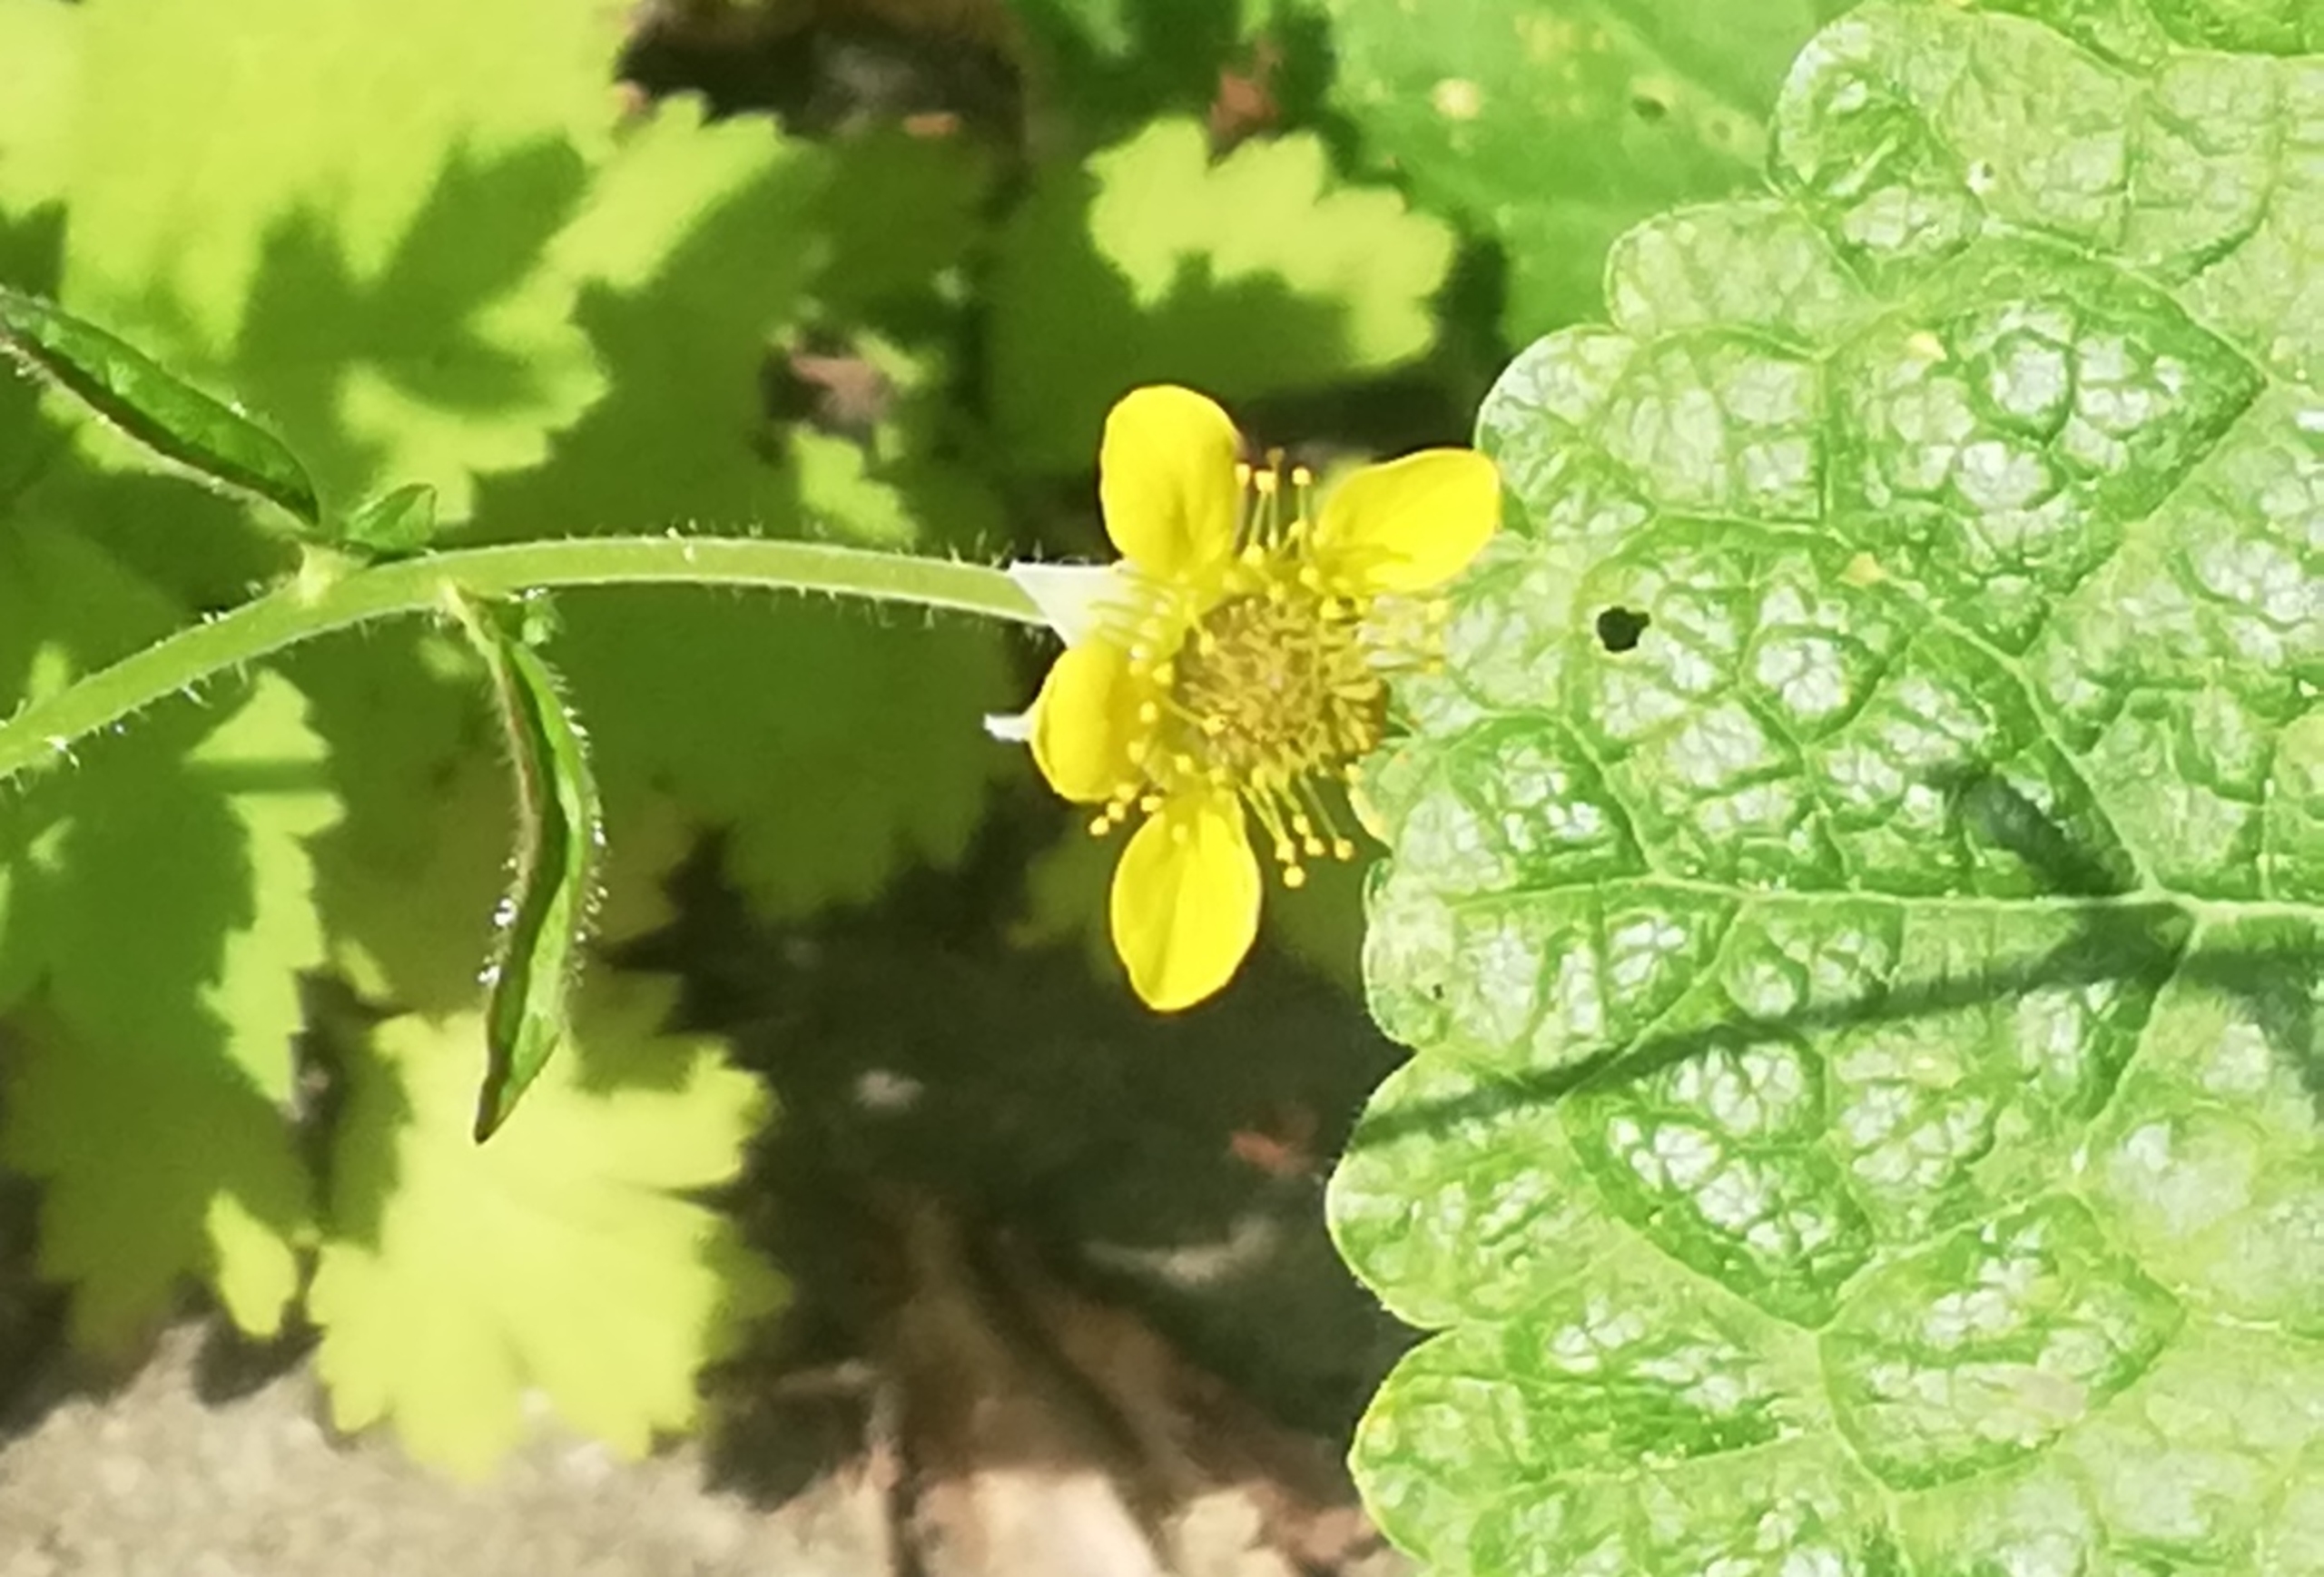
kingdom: Plantae
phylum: Tracheophyta
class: Magnoliopsida
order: Rosales
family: Rosaceae
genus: Geum
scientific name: Geum urbanum
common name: Feber-nellikerod
